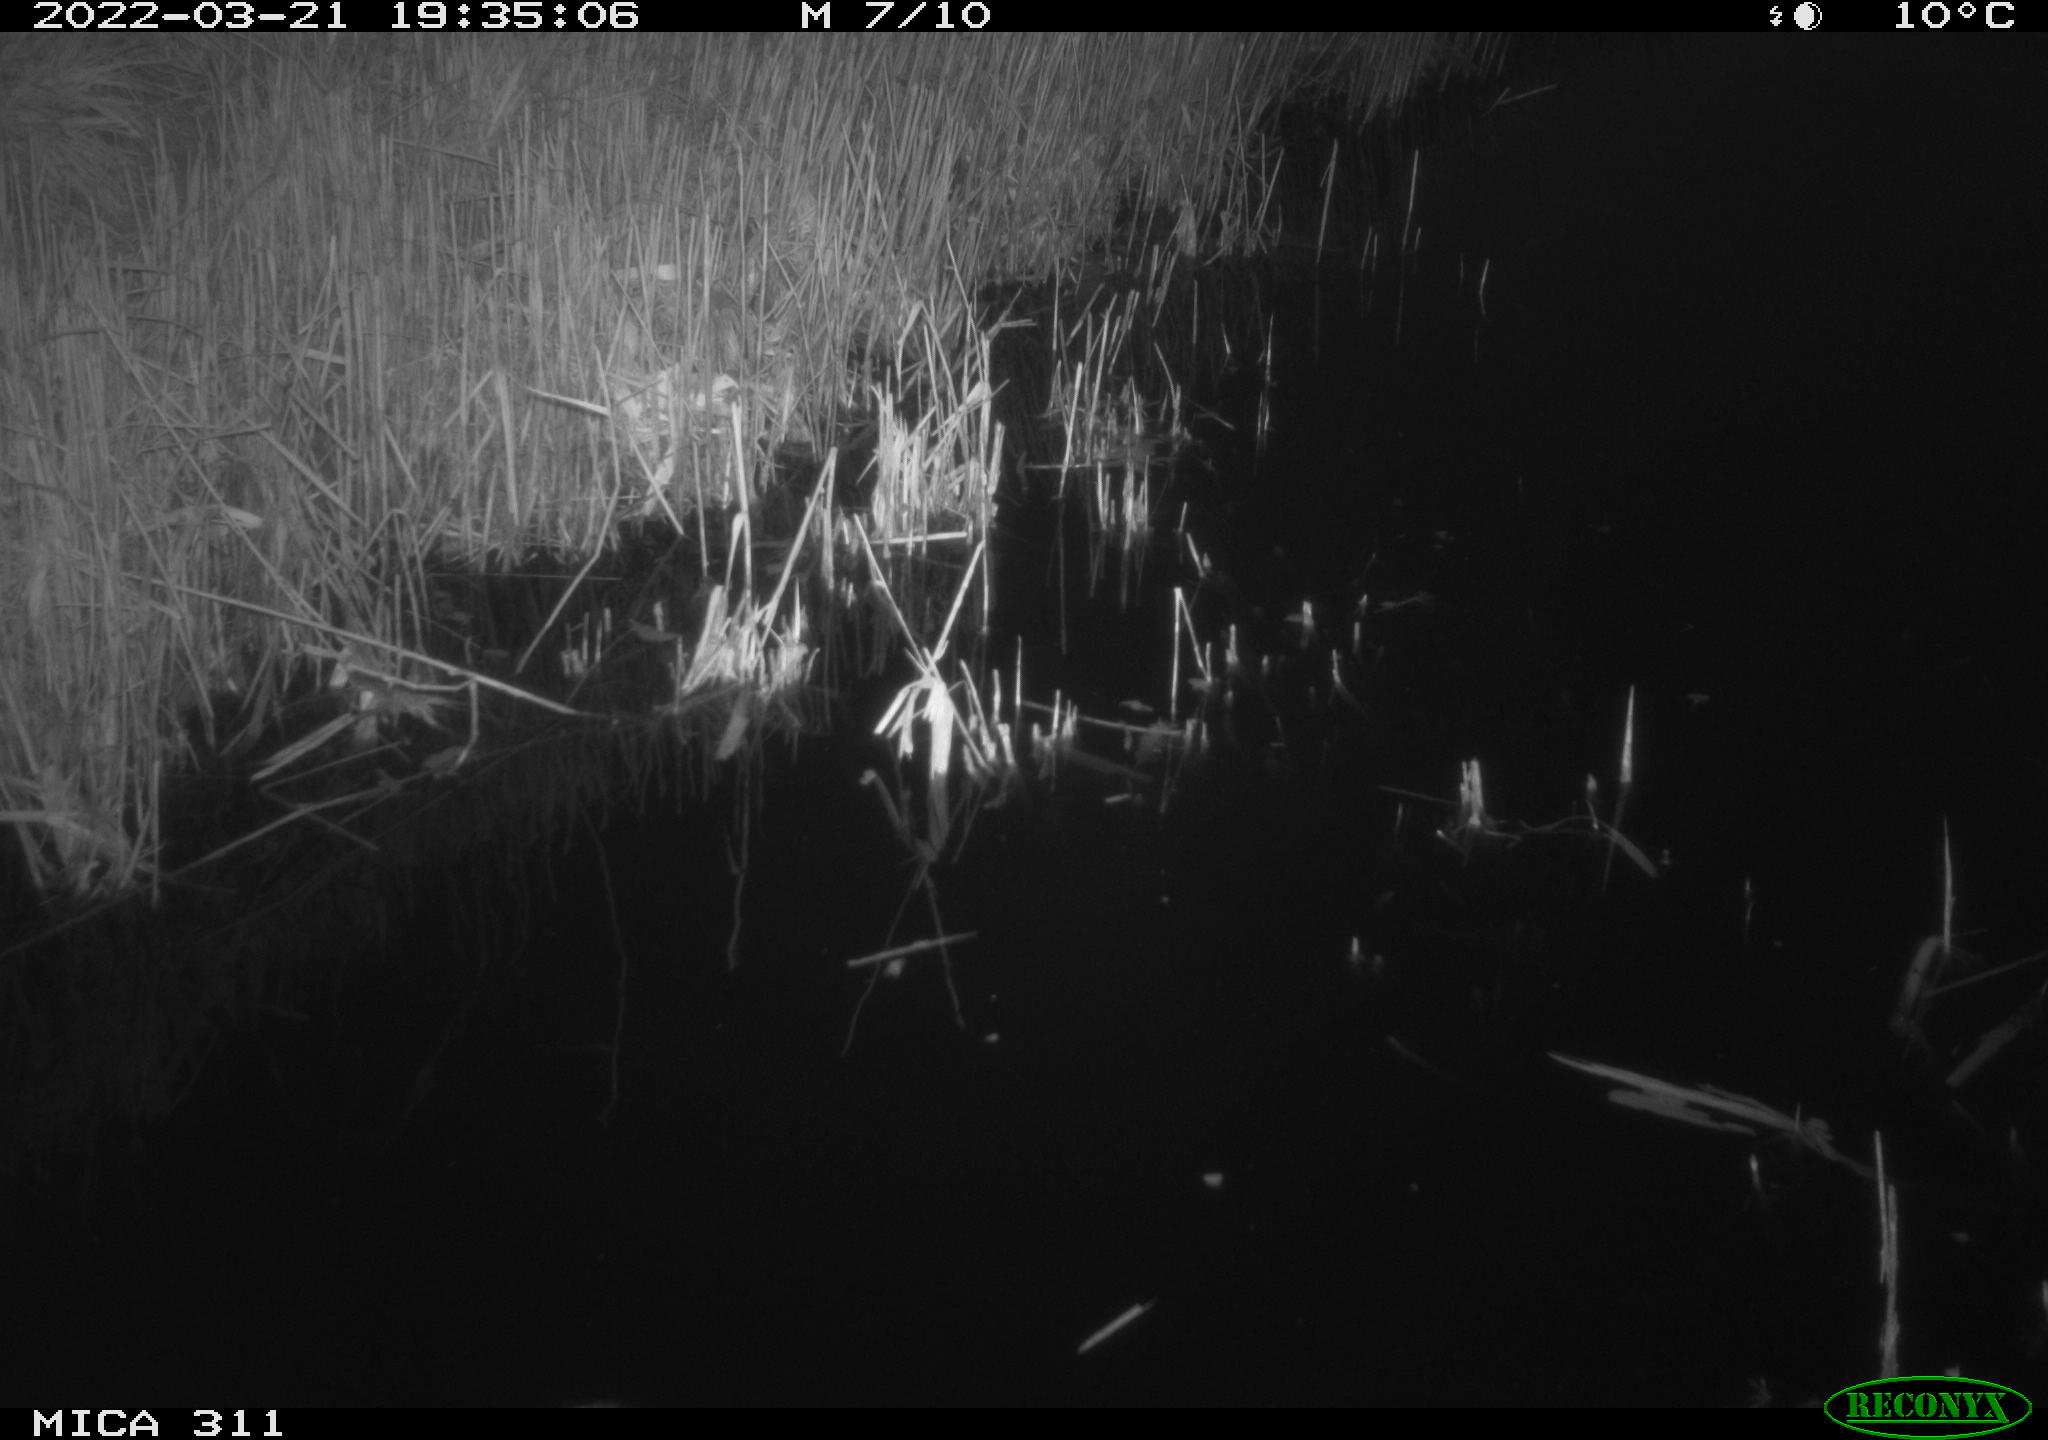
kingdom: Animalia
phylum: Chordata
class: Aves
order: Gruiformes
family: Rallidae
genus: Gallinula
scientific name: Gallinula chloropus
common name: Common moorhen
